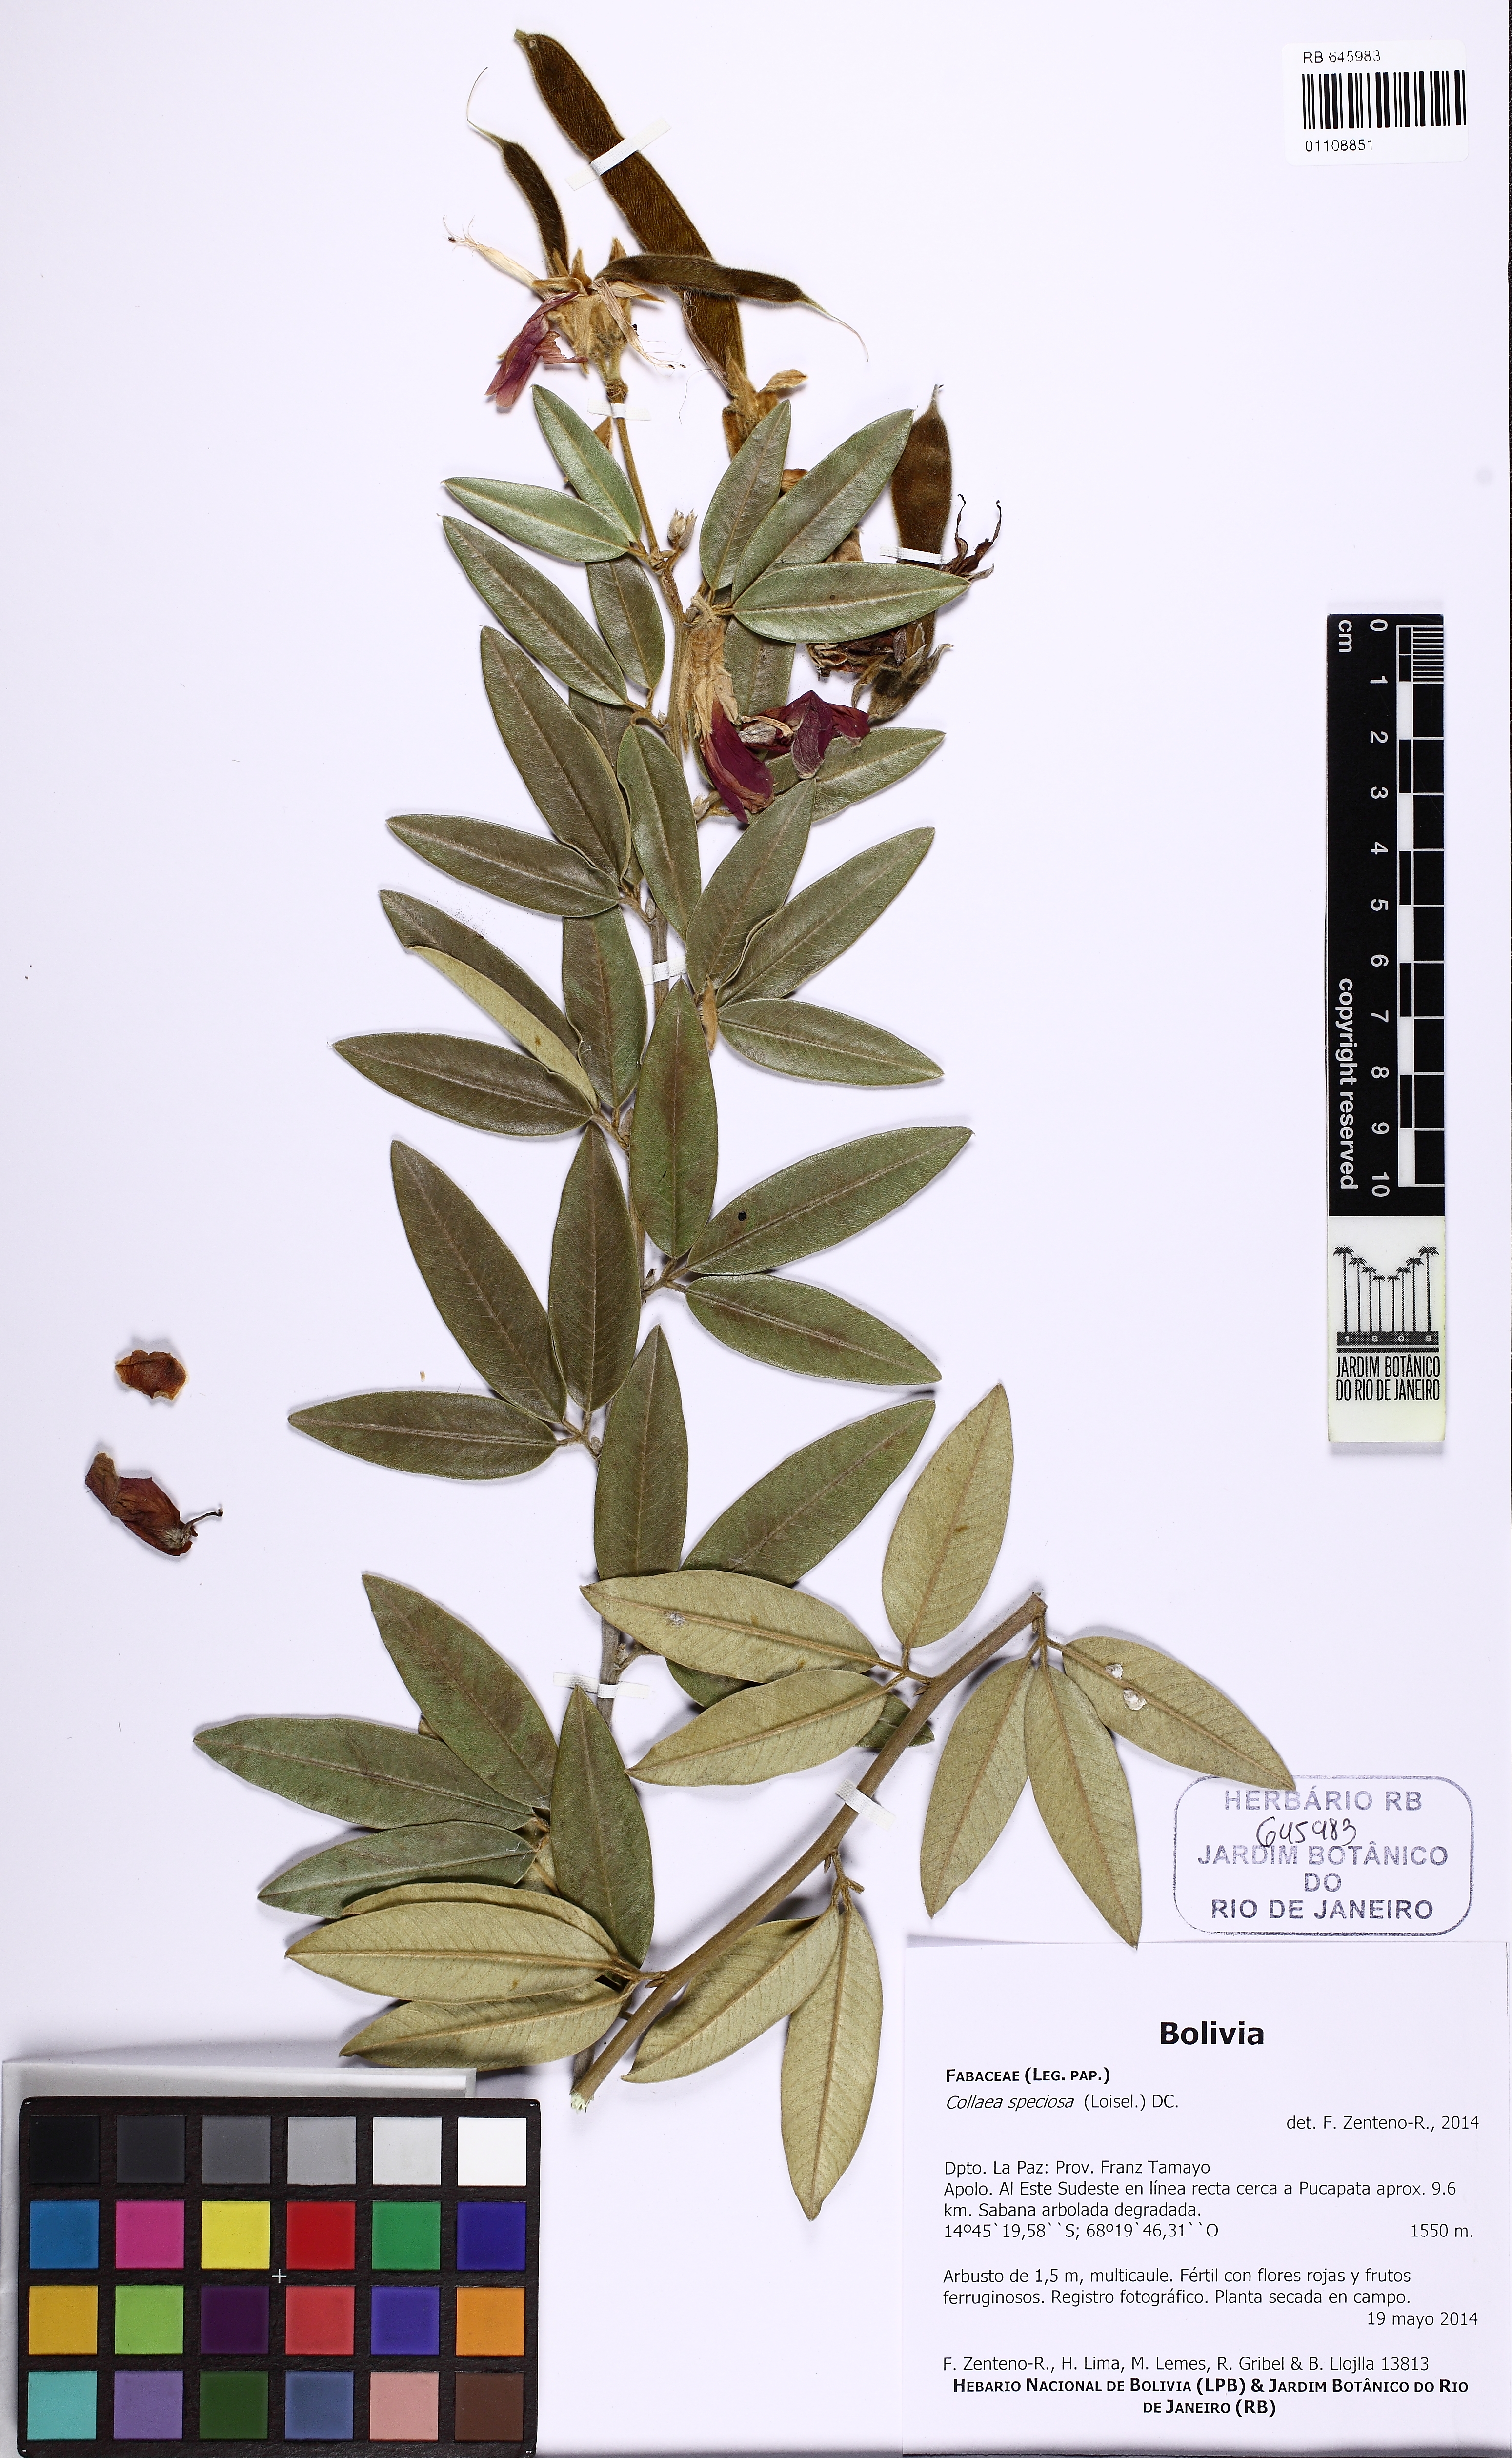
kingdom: Plantae
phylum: Tracheophyta
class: Magnoliopsida
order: Fabales
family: Fabaceae
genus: Collaea
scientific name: Collaea speciosa
